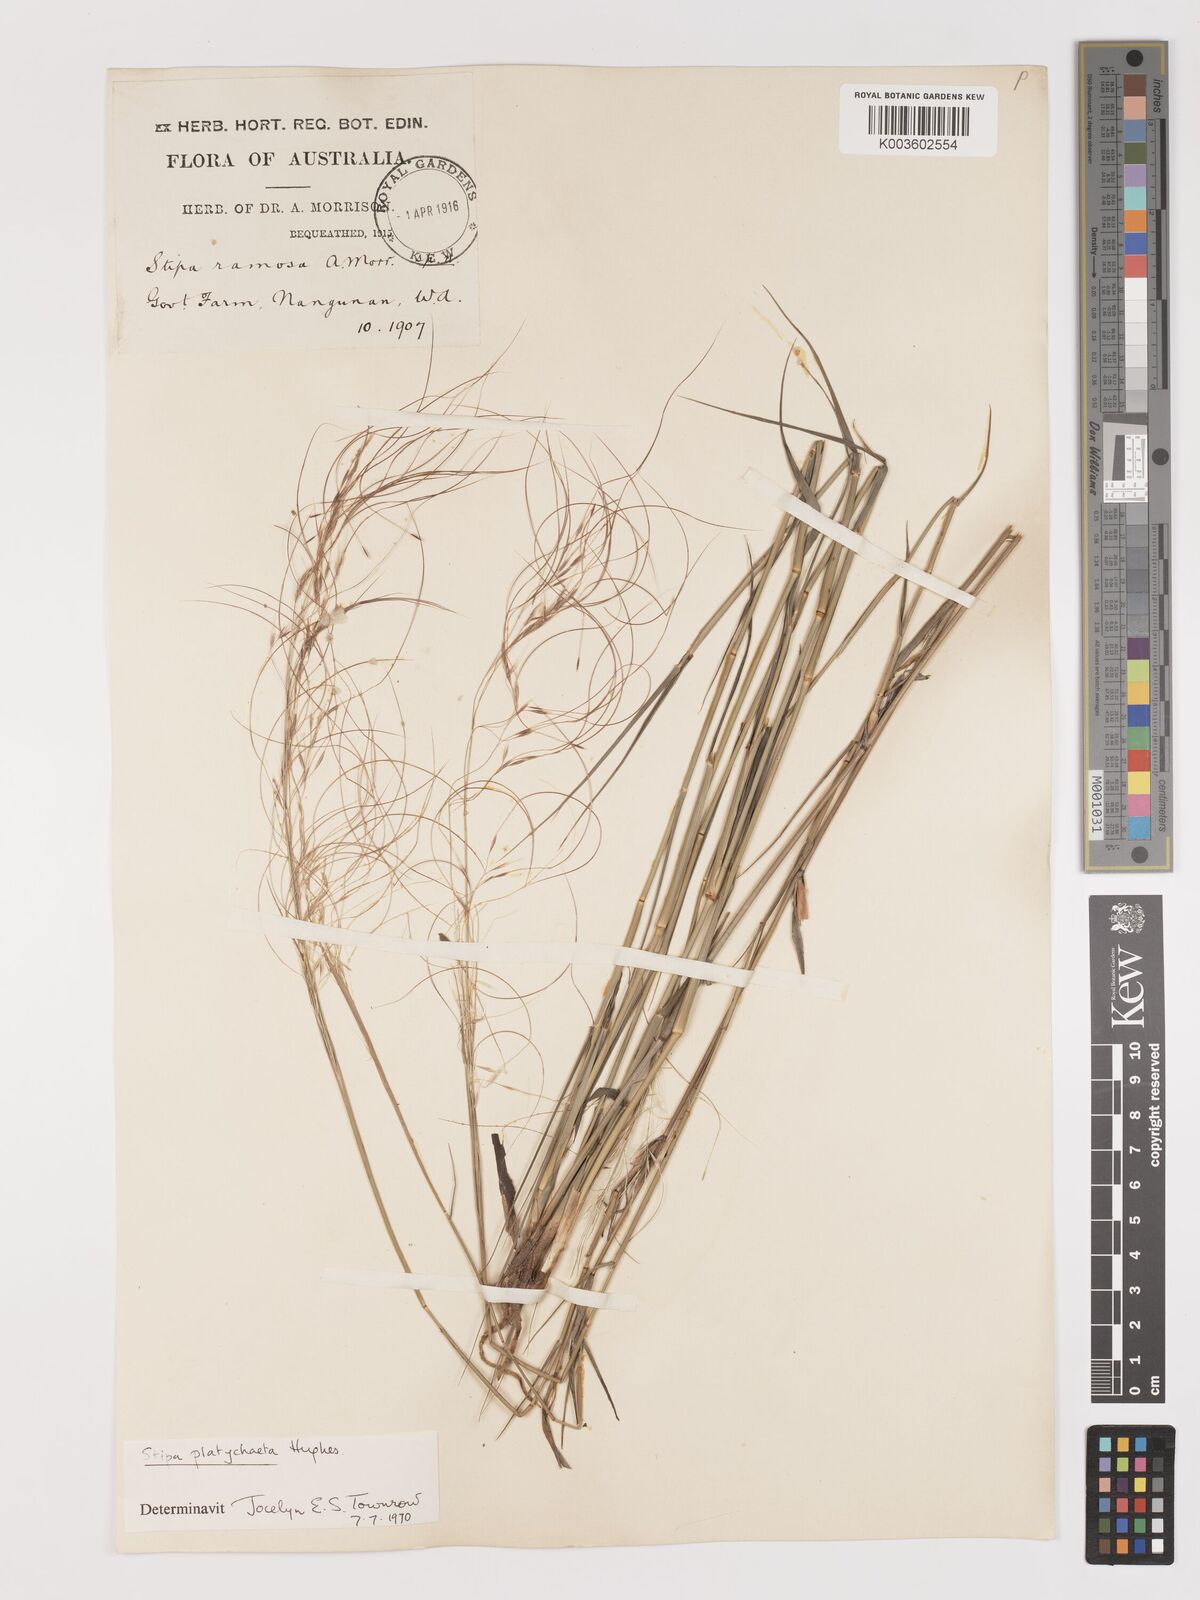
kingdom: Plantae
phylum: Tracheophyta
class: Liliopsida
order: Poales
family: Poaceae
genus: Austrostipa
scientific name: Austrostipa platychaeta
